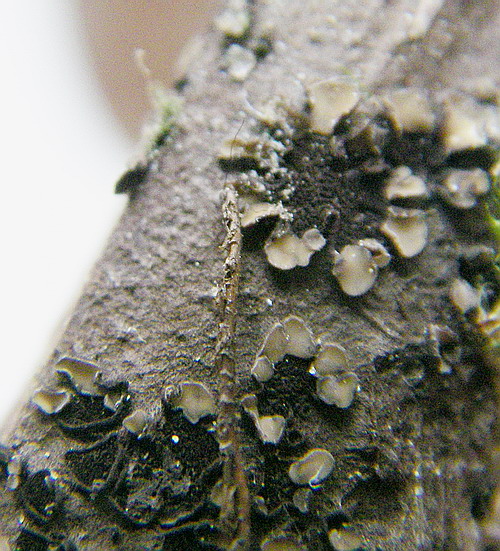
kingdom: Fungi
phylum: Ascomycota
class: Leotiomycetes
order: Helotiales
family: Mollisiaceae
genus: Tapesia
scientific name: Tapesia lividofusca
